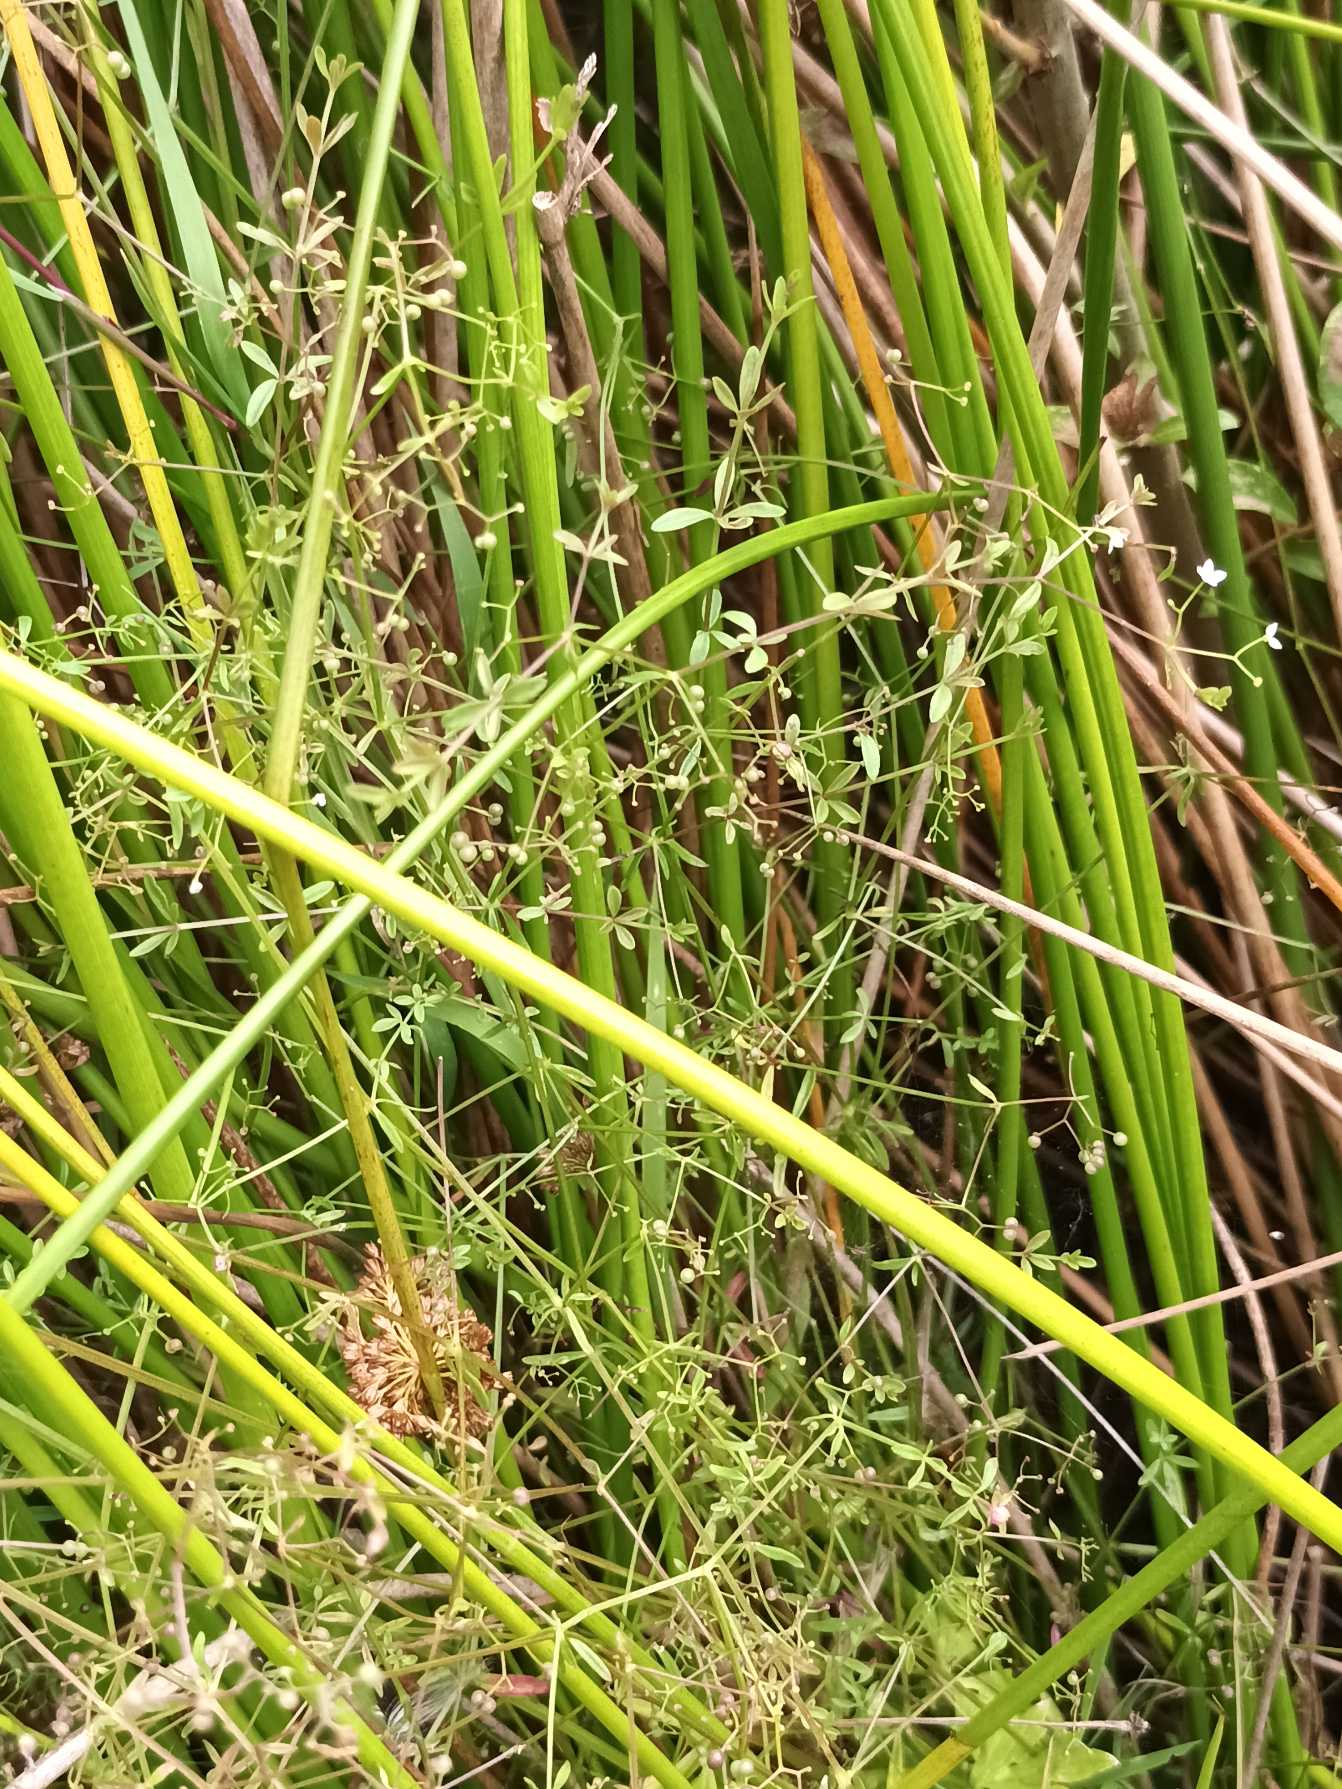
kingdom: Plantae
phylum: Tracheophyta
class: Magnoliopsida
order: Gentianales
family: Rubiaceae
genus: Galium
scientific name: Galium palustre
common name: Kær-snerre
